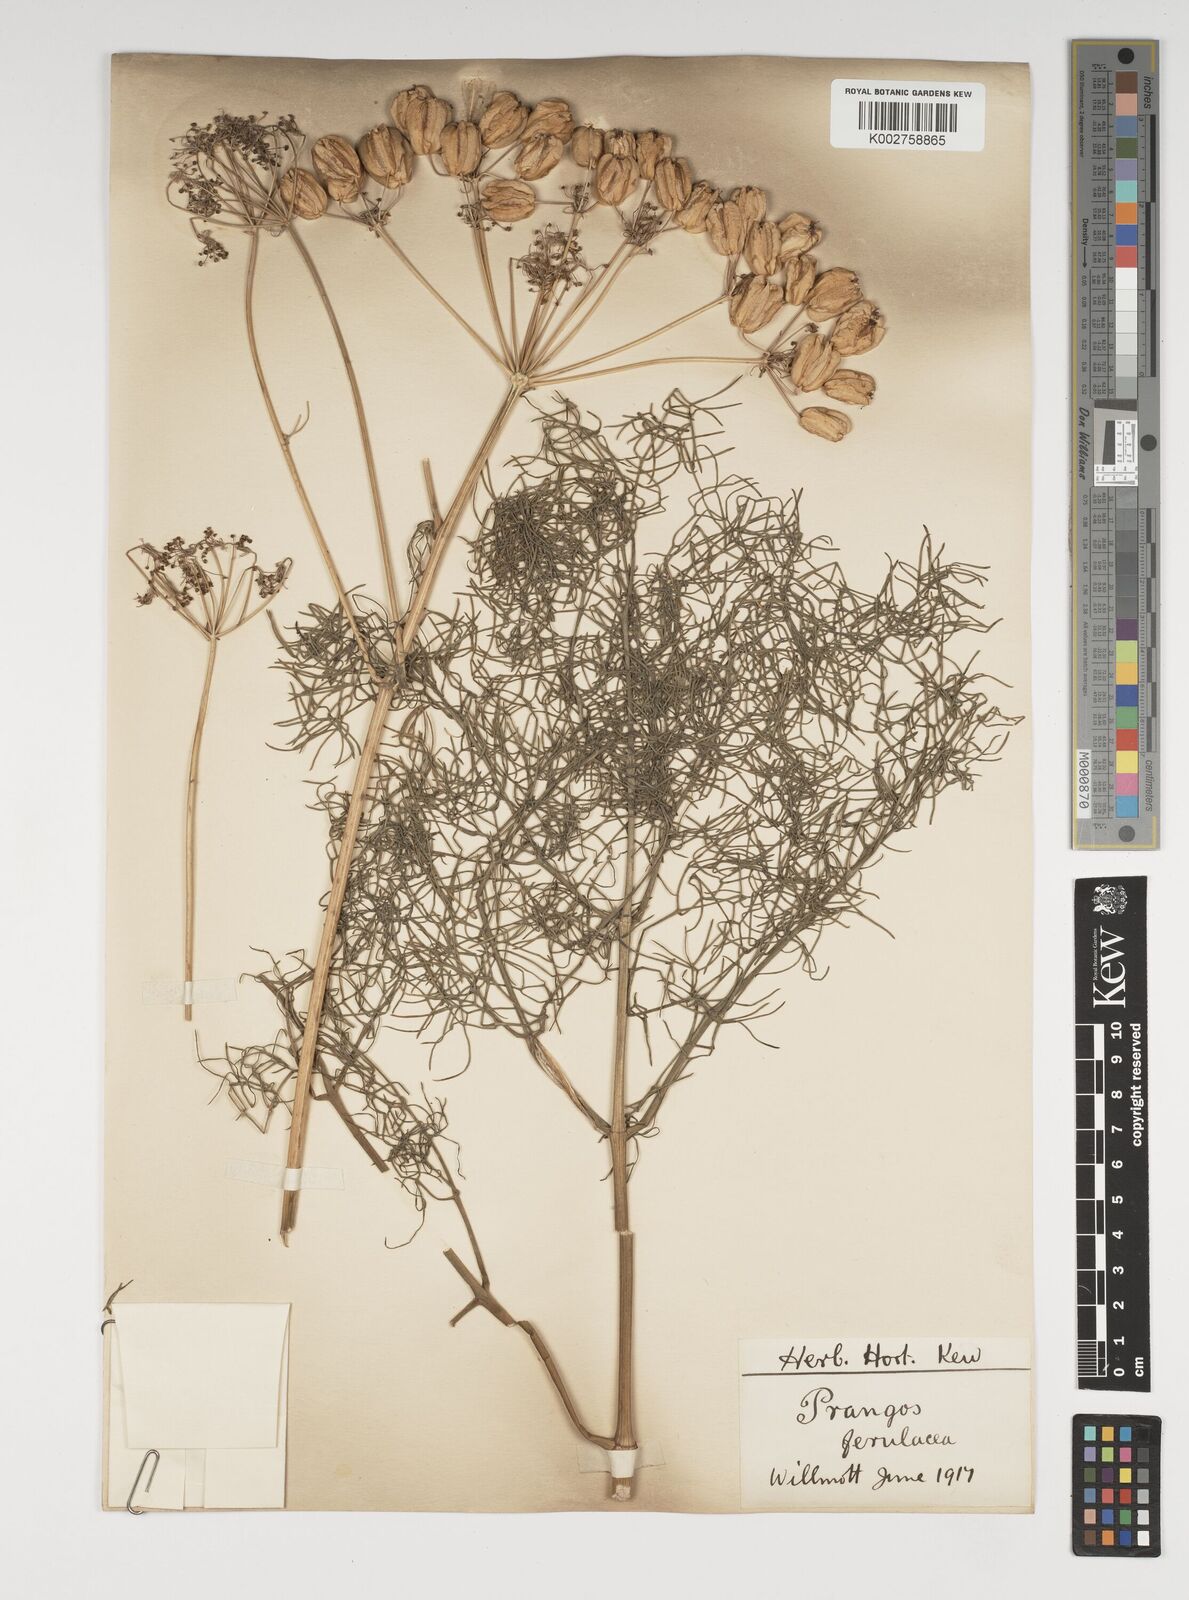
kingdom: Plantae
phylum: Tracheophyta
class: Magnoliopsida
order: Apiales
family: Apiaceae
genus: Prangos
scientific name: Prangos ferulacea
